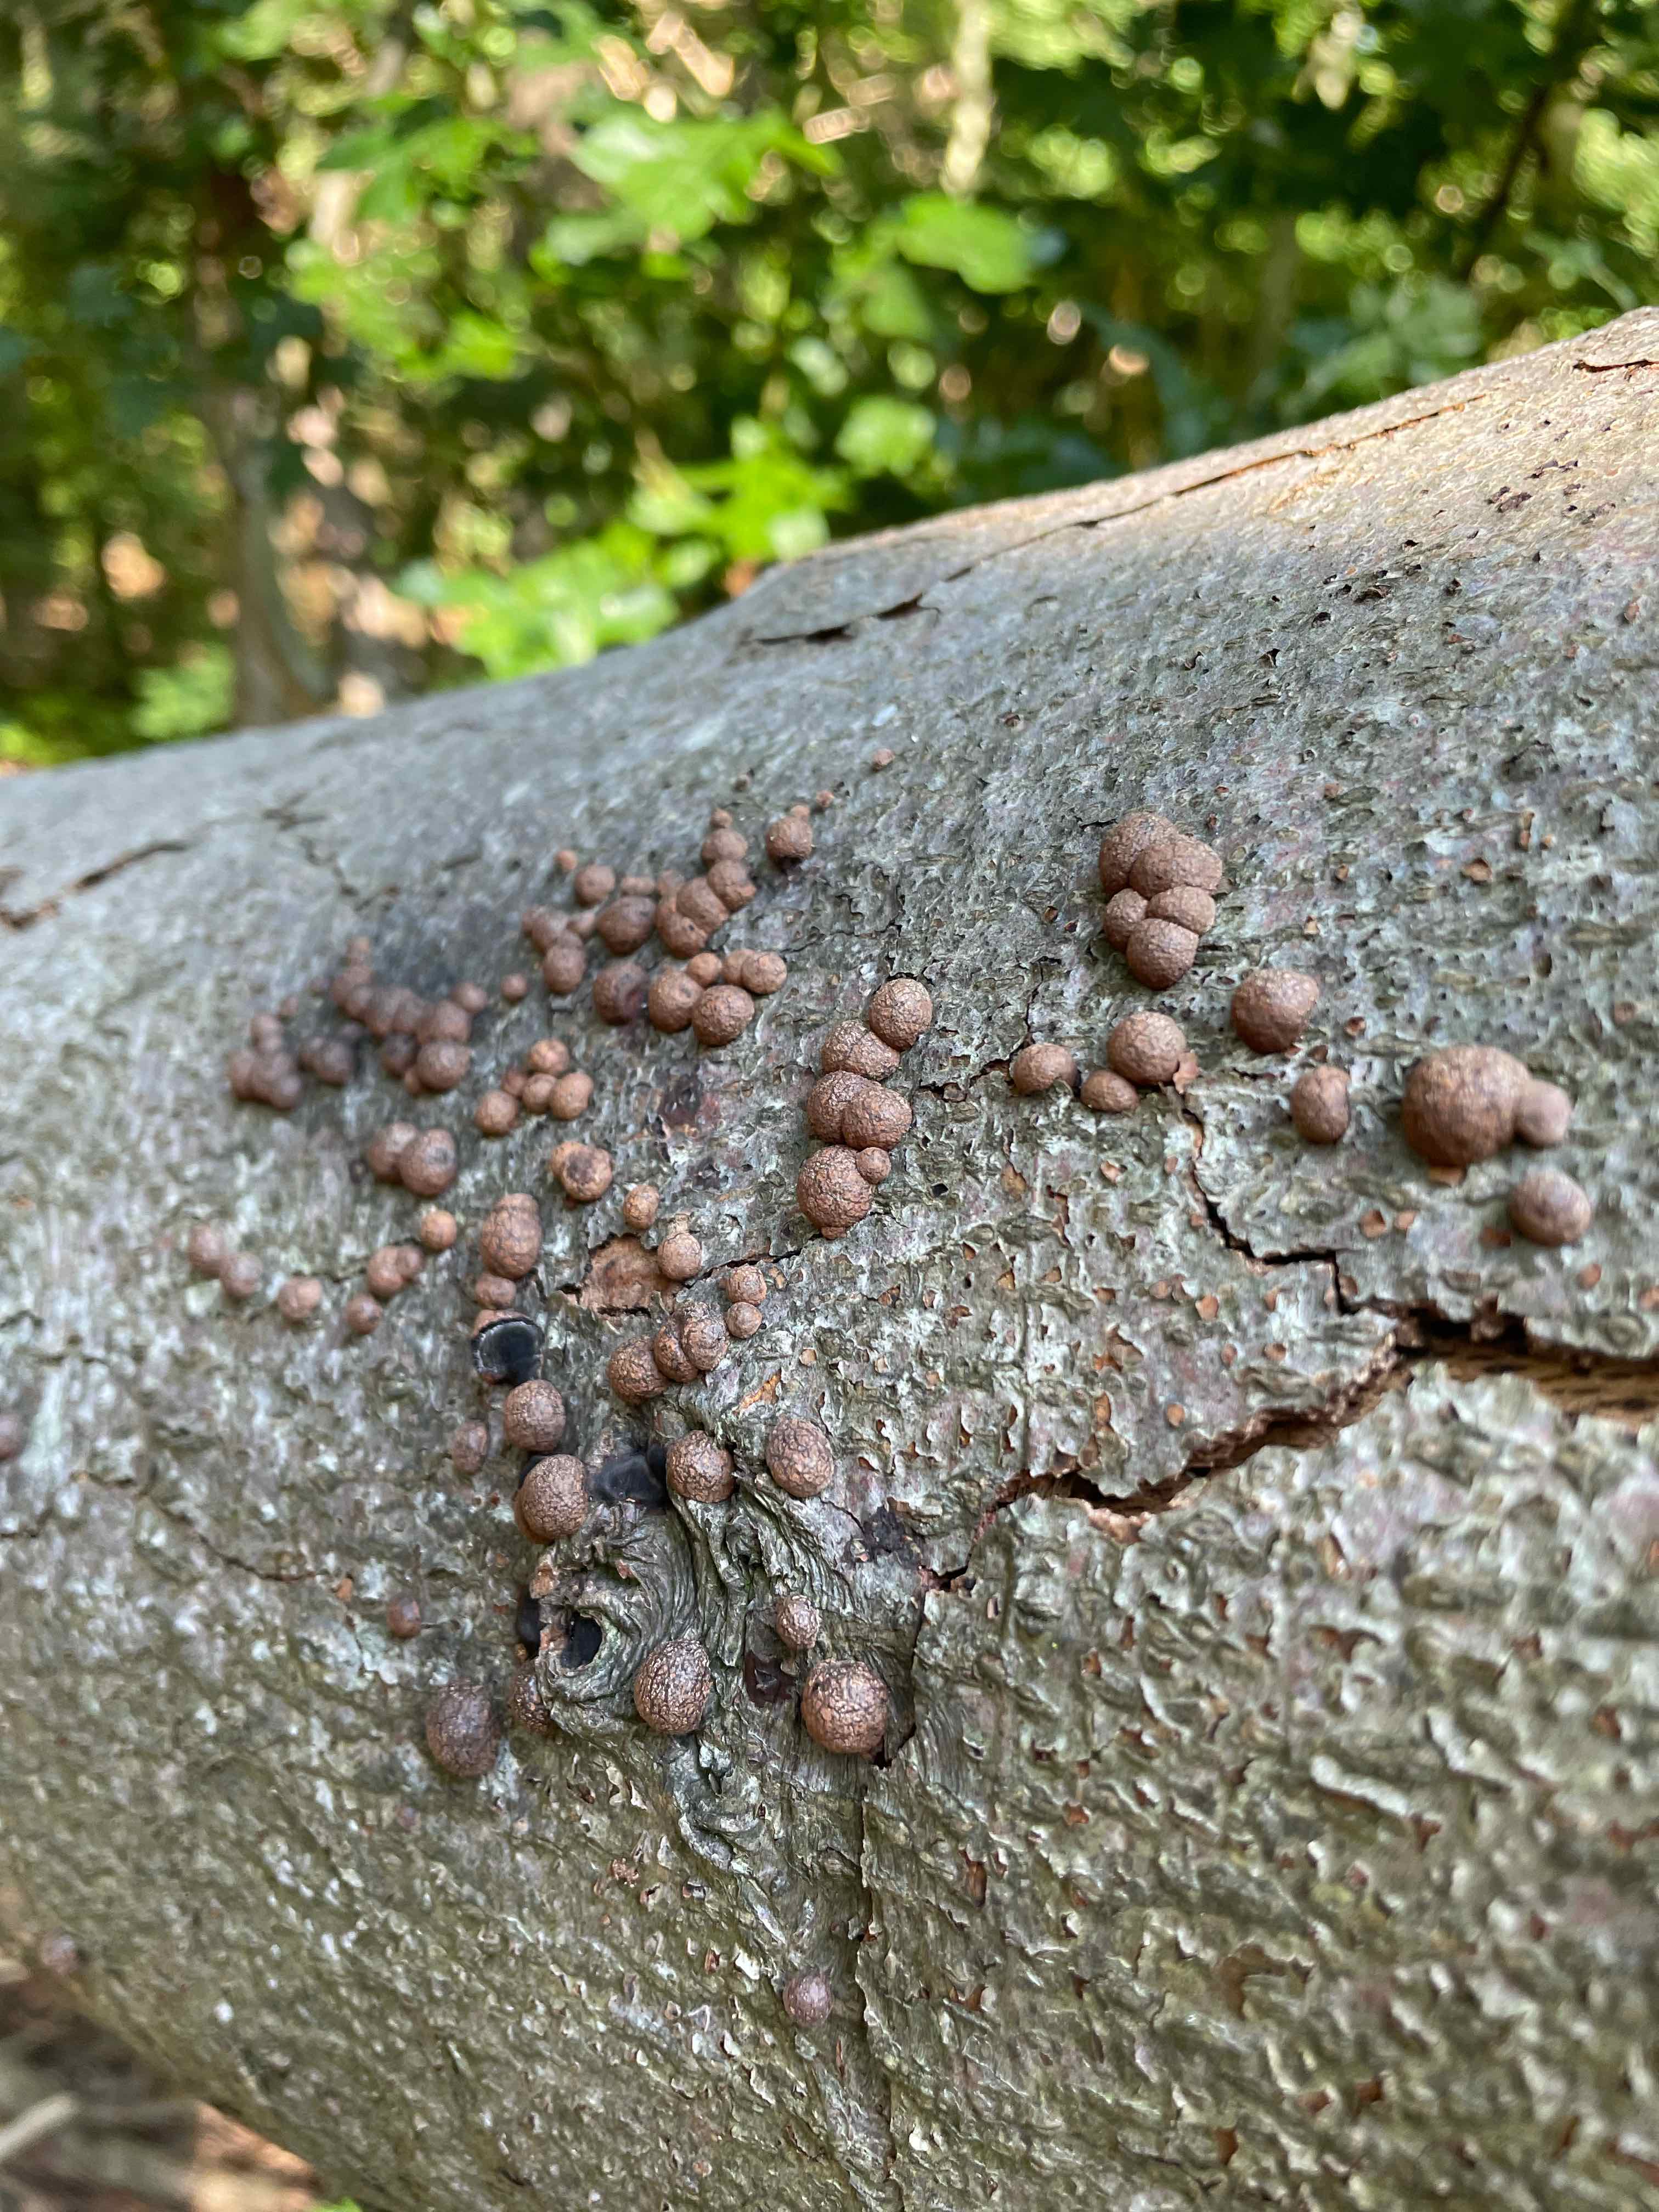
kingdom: Fungi
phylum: Ascomycota
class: Sordariomycetes
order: Xylariales
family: Hypoxylaceae
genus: Hypoxylon
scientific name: Hypoxylon fragiforme
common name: kuljordbær
